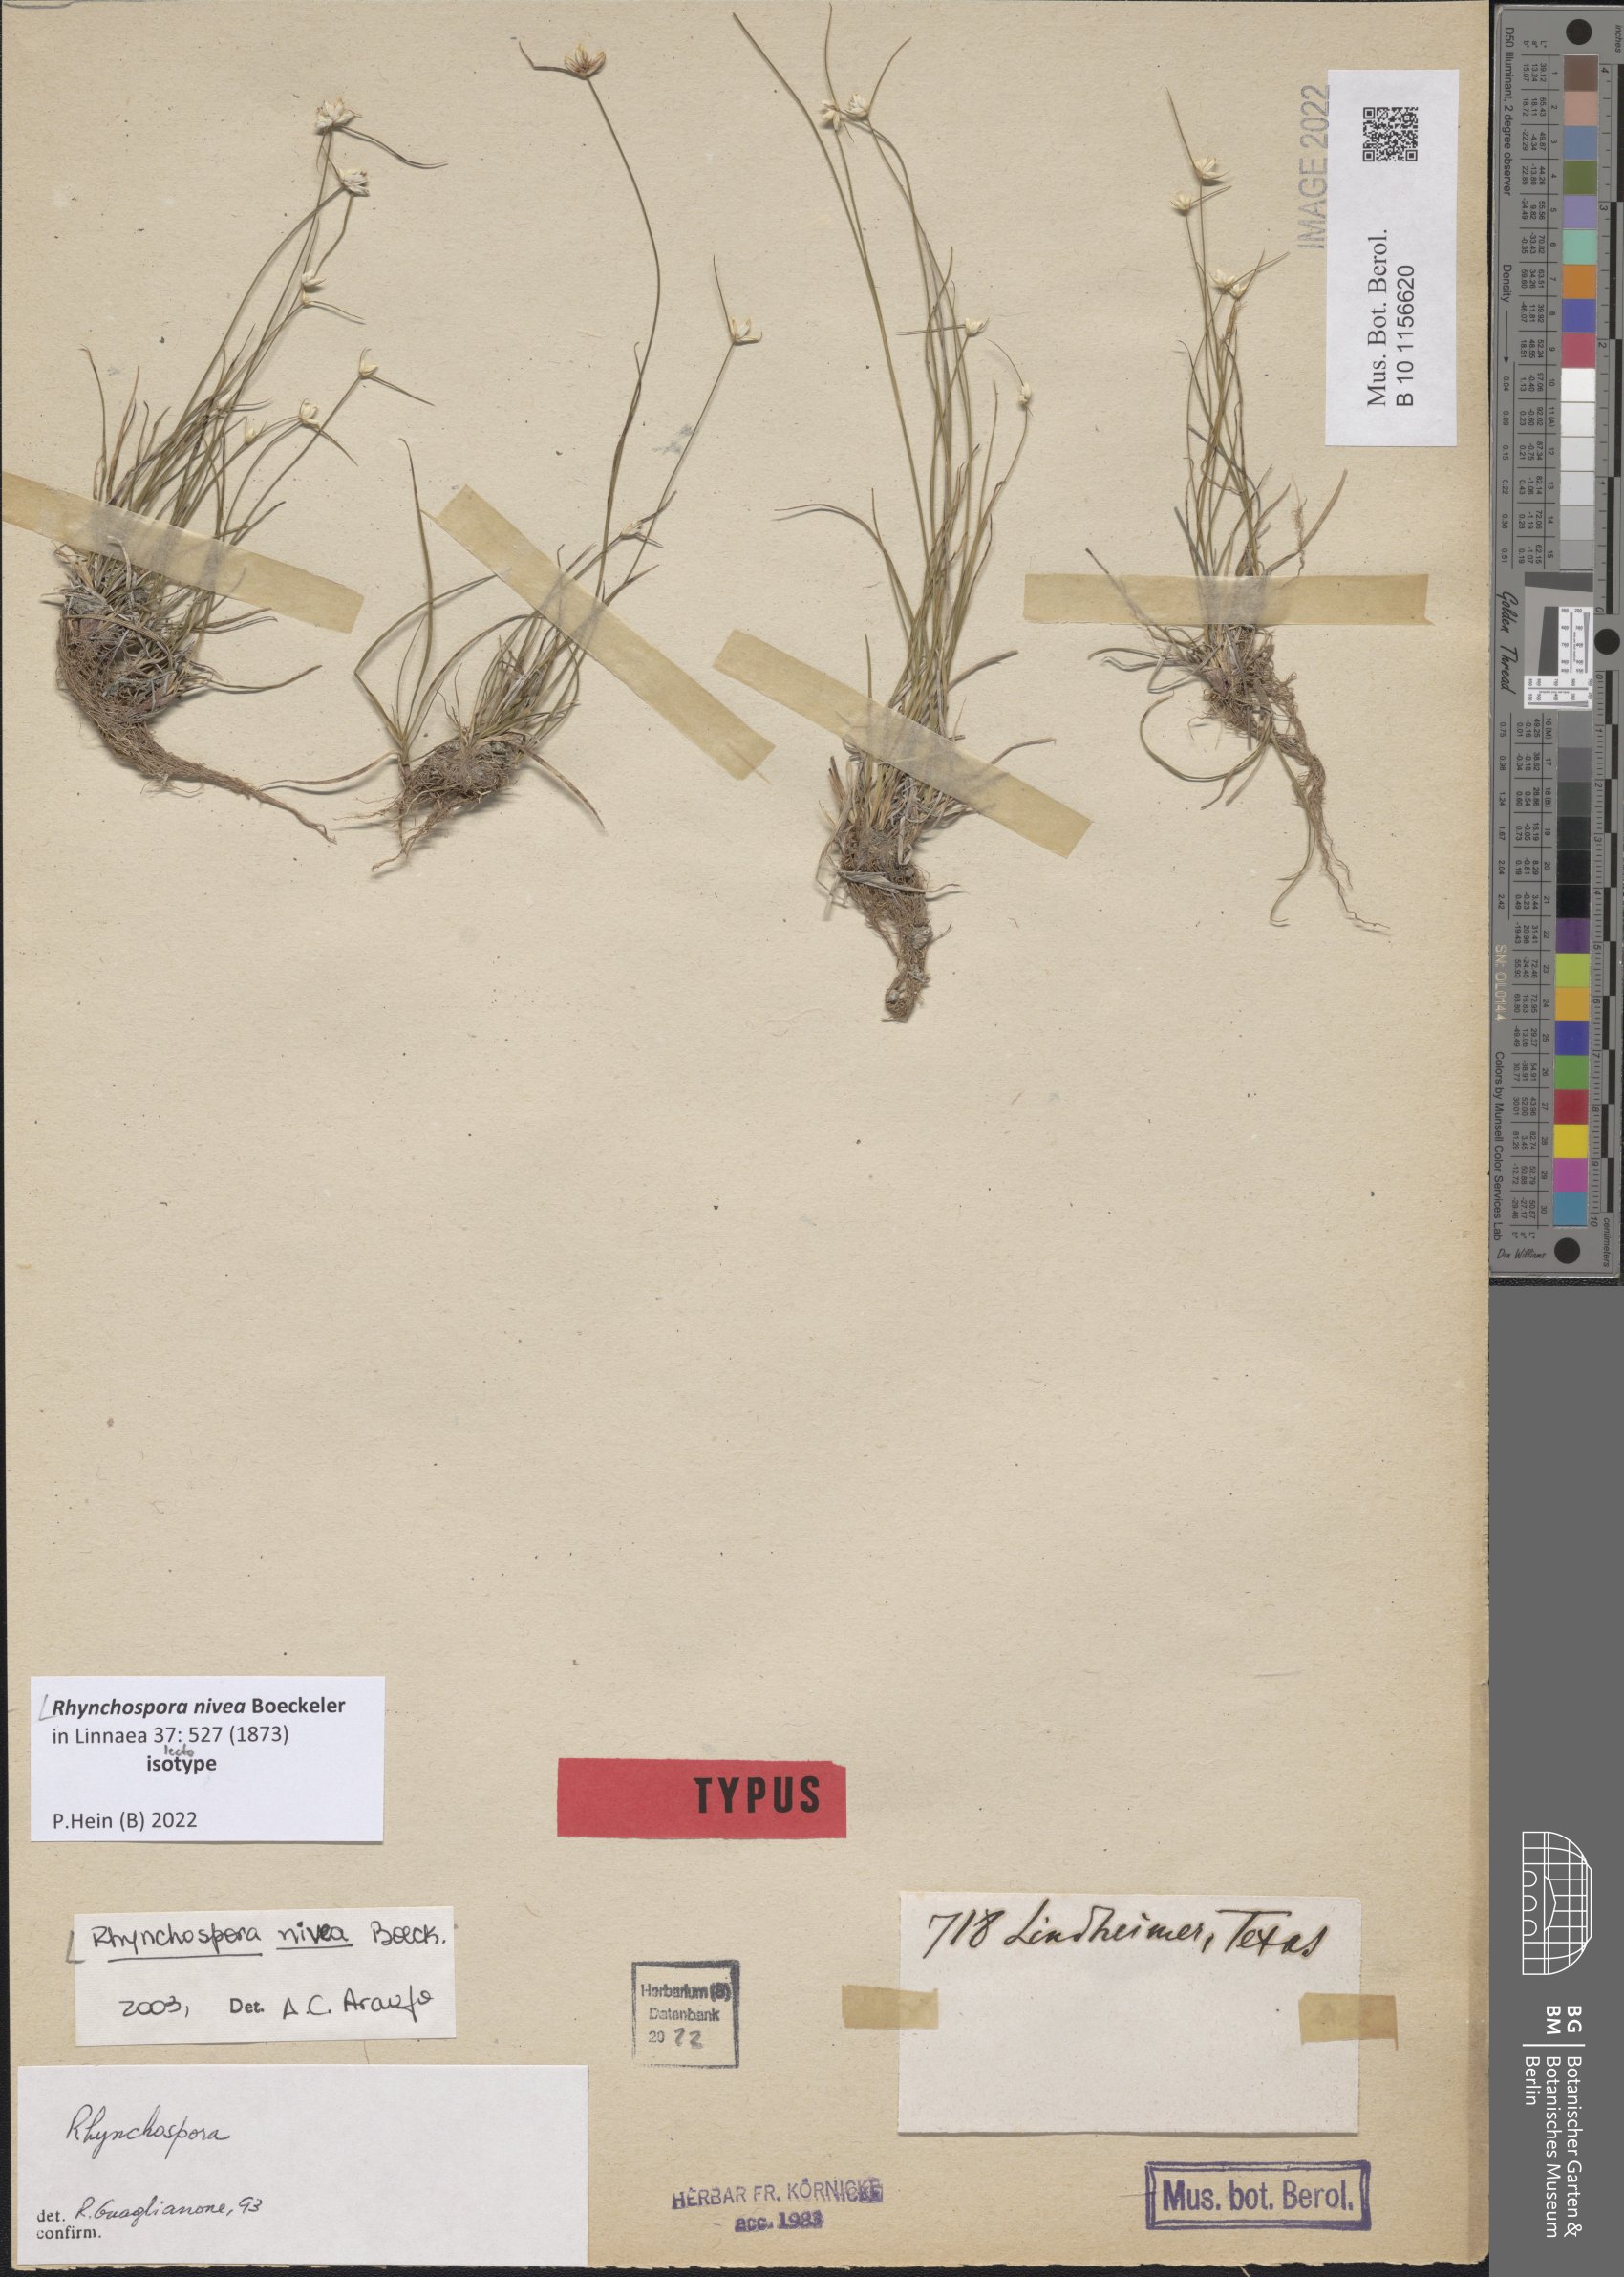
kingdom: Plantae
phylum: Tracheophyta
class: Liliopsida
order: Poales
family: Cyperaceae
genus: Rhynchospora
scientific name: Rhynchospora nivea
